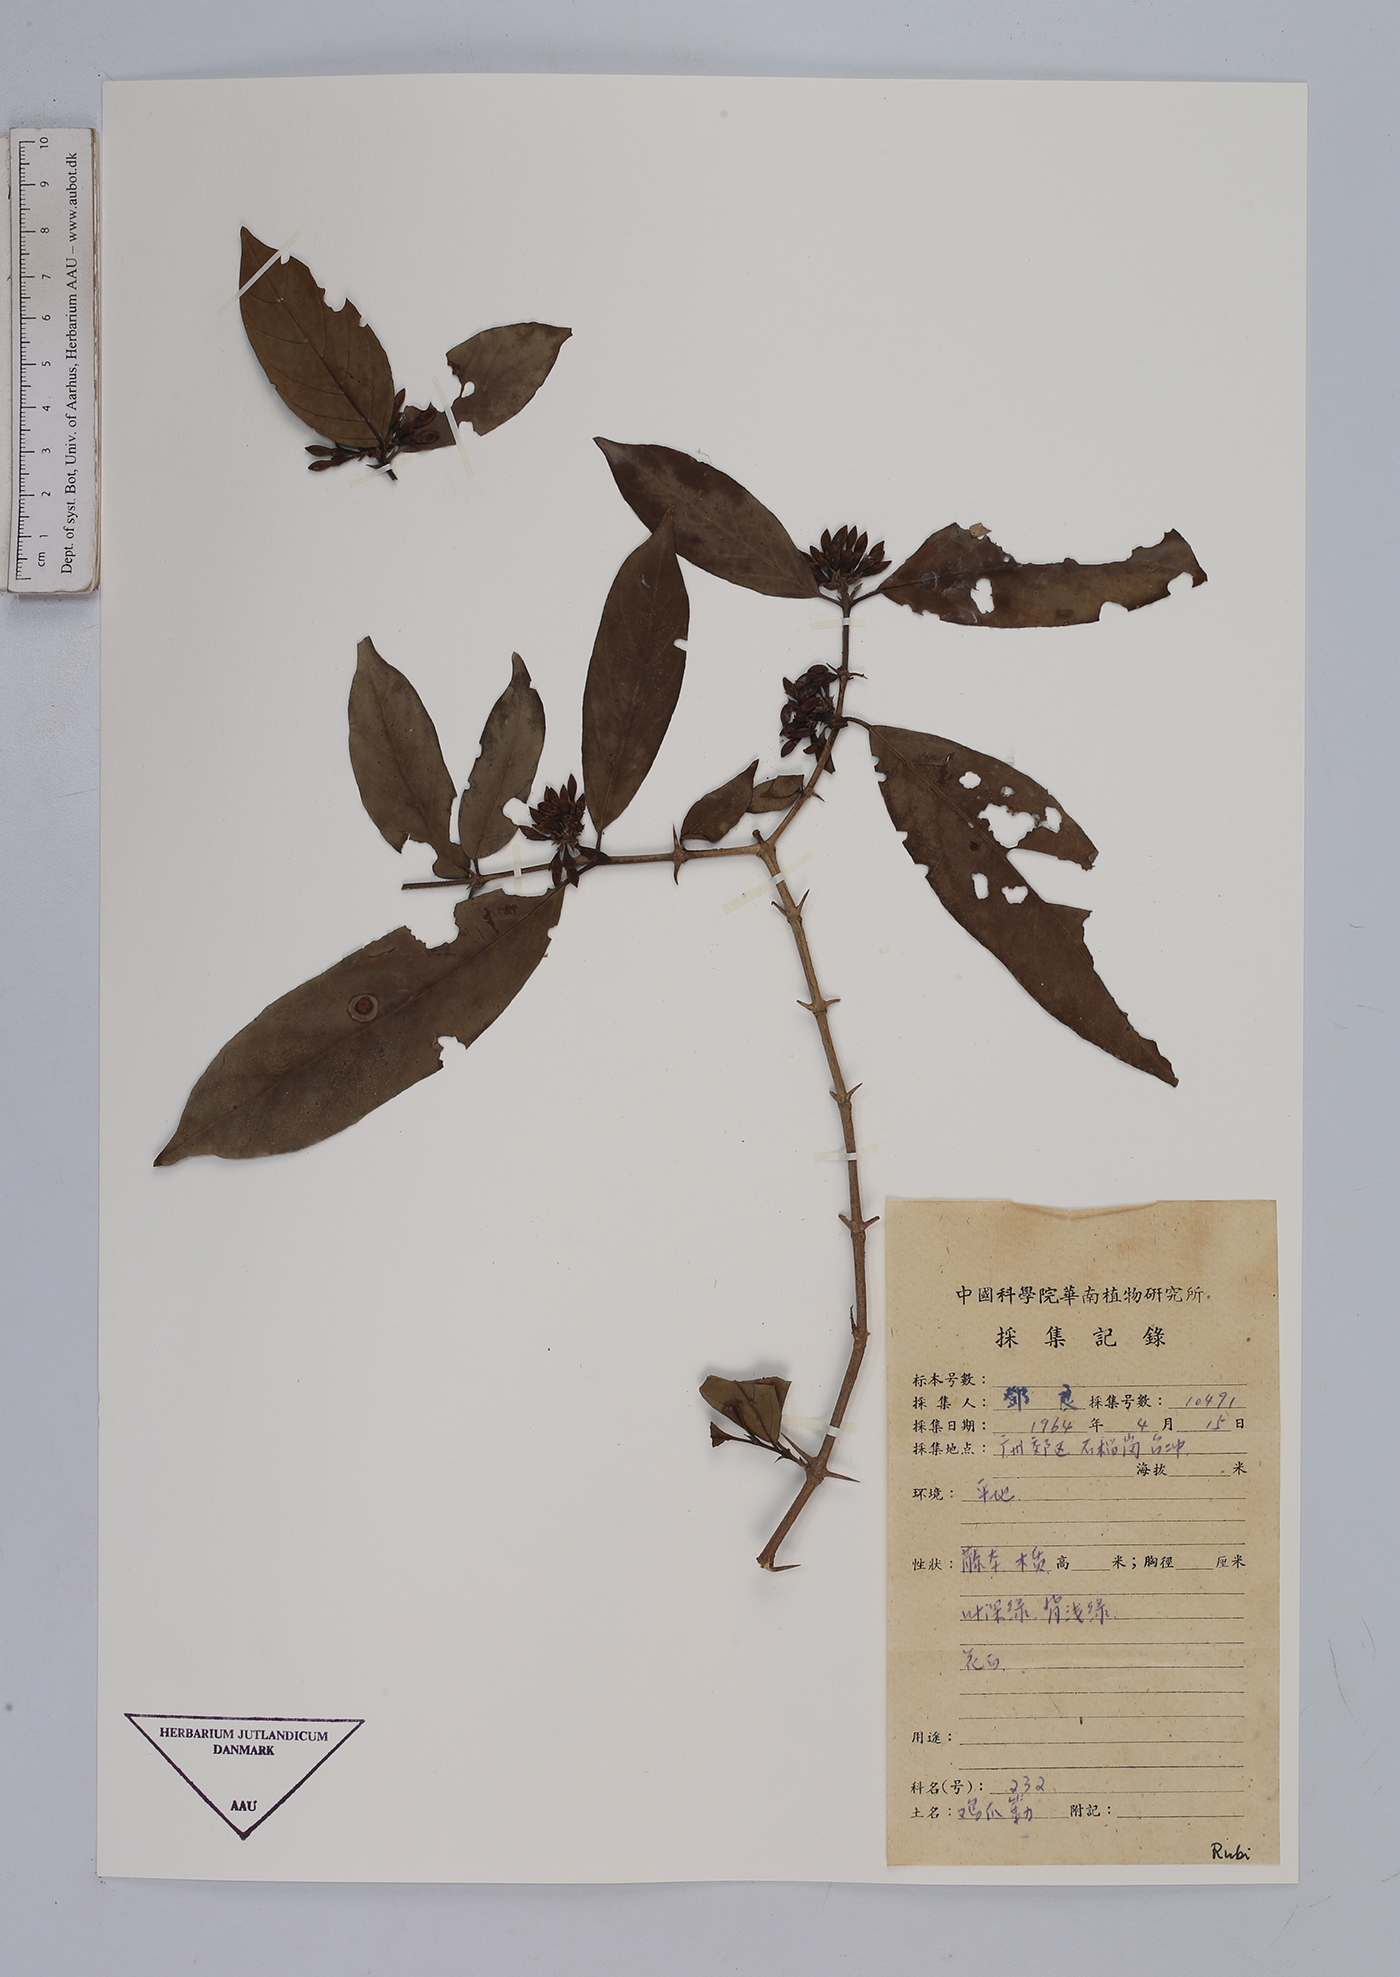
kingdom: Plantae
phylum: Tracheophyta
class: Magnoliopsida
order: Gentianales
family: Rubiaceae
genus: Urophyllum
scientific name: Urophyllum
